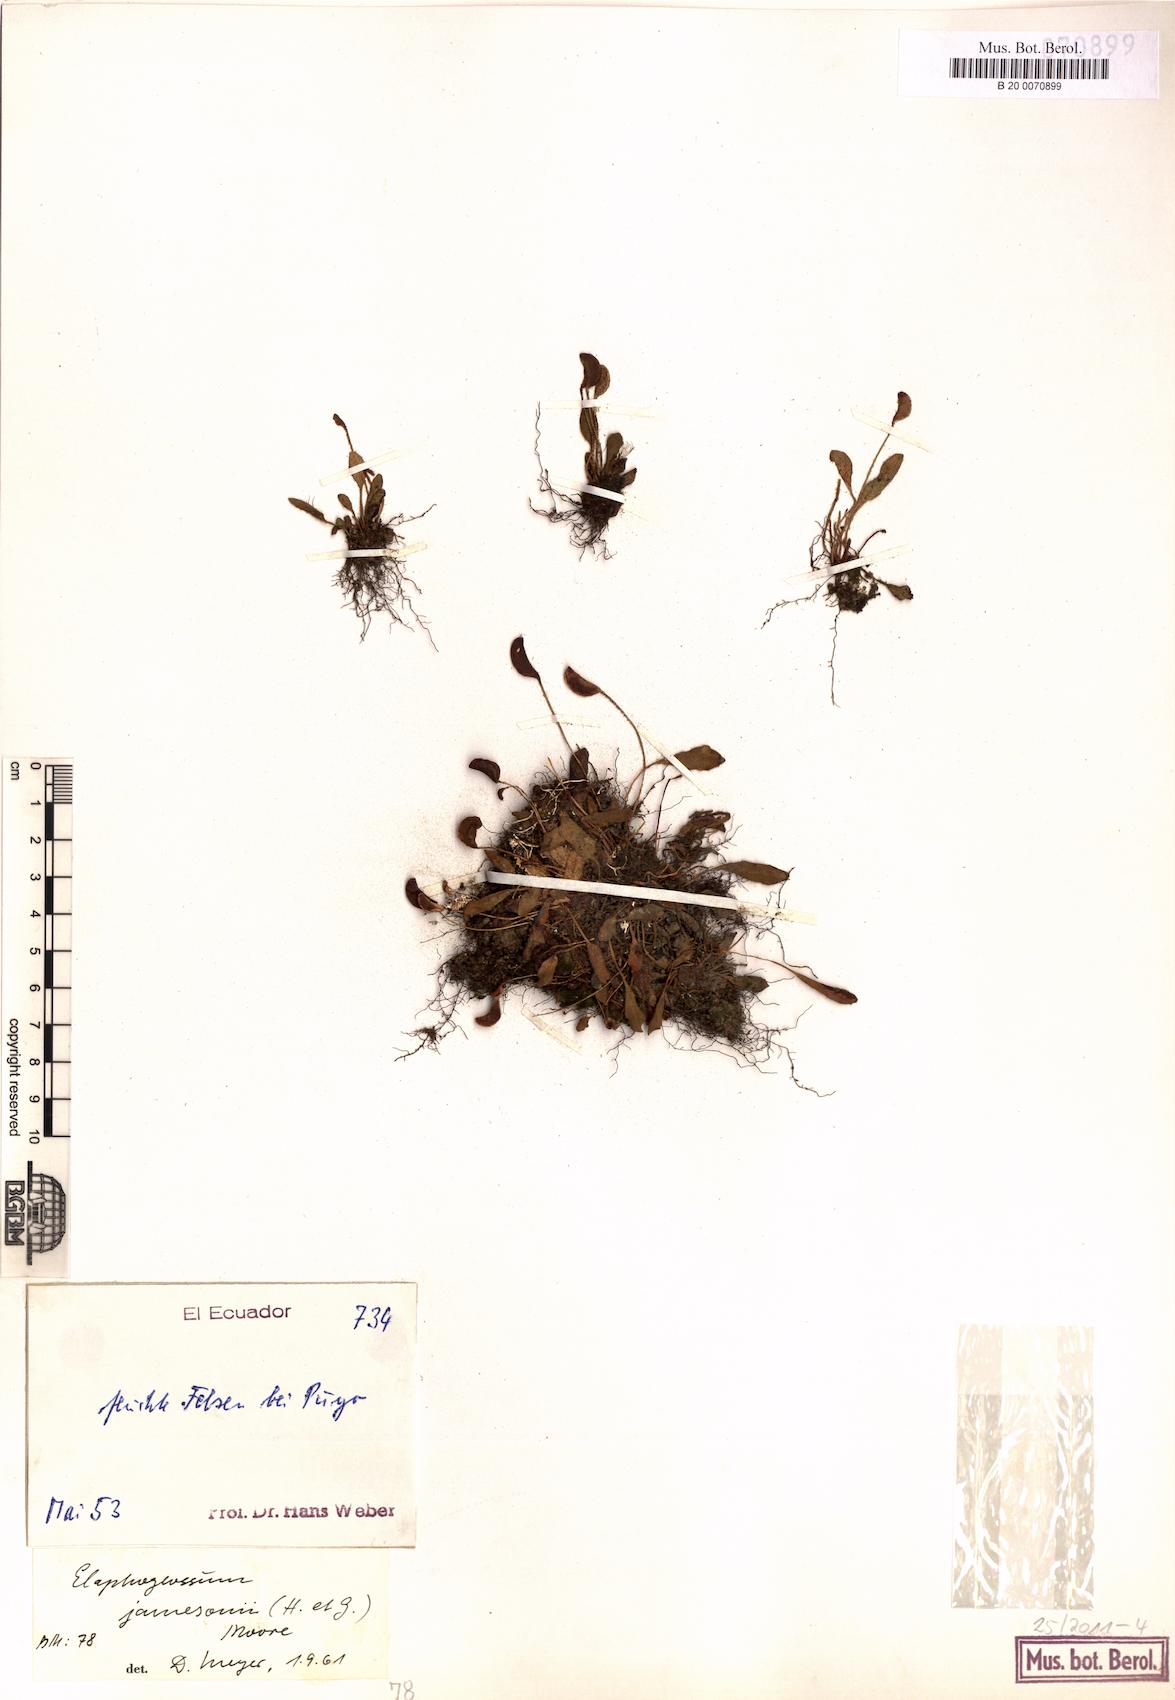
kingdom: Plantae
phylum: Tracheophyta
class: Polypodiopsida
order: Polypodiales
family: Dryopteridaceae
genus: Elaphoglossum
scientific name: Elaphoglossum piloselloides
